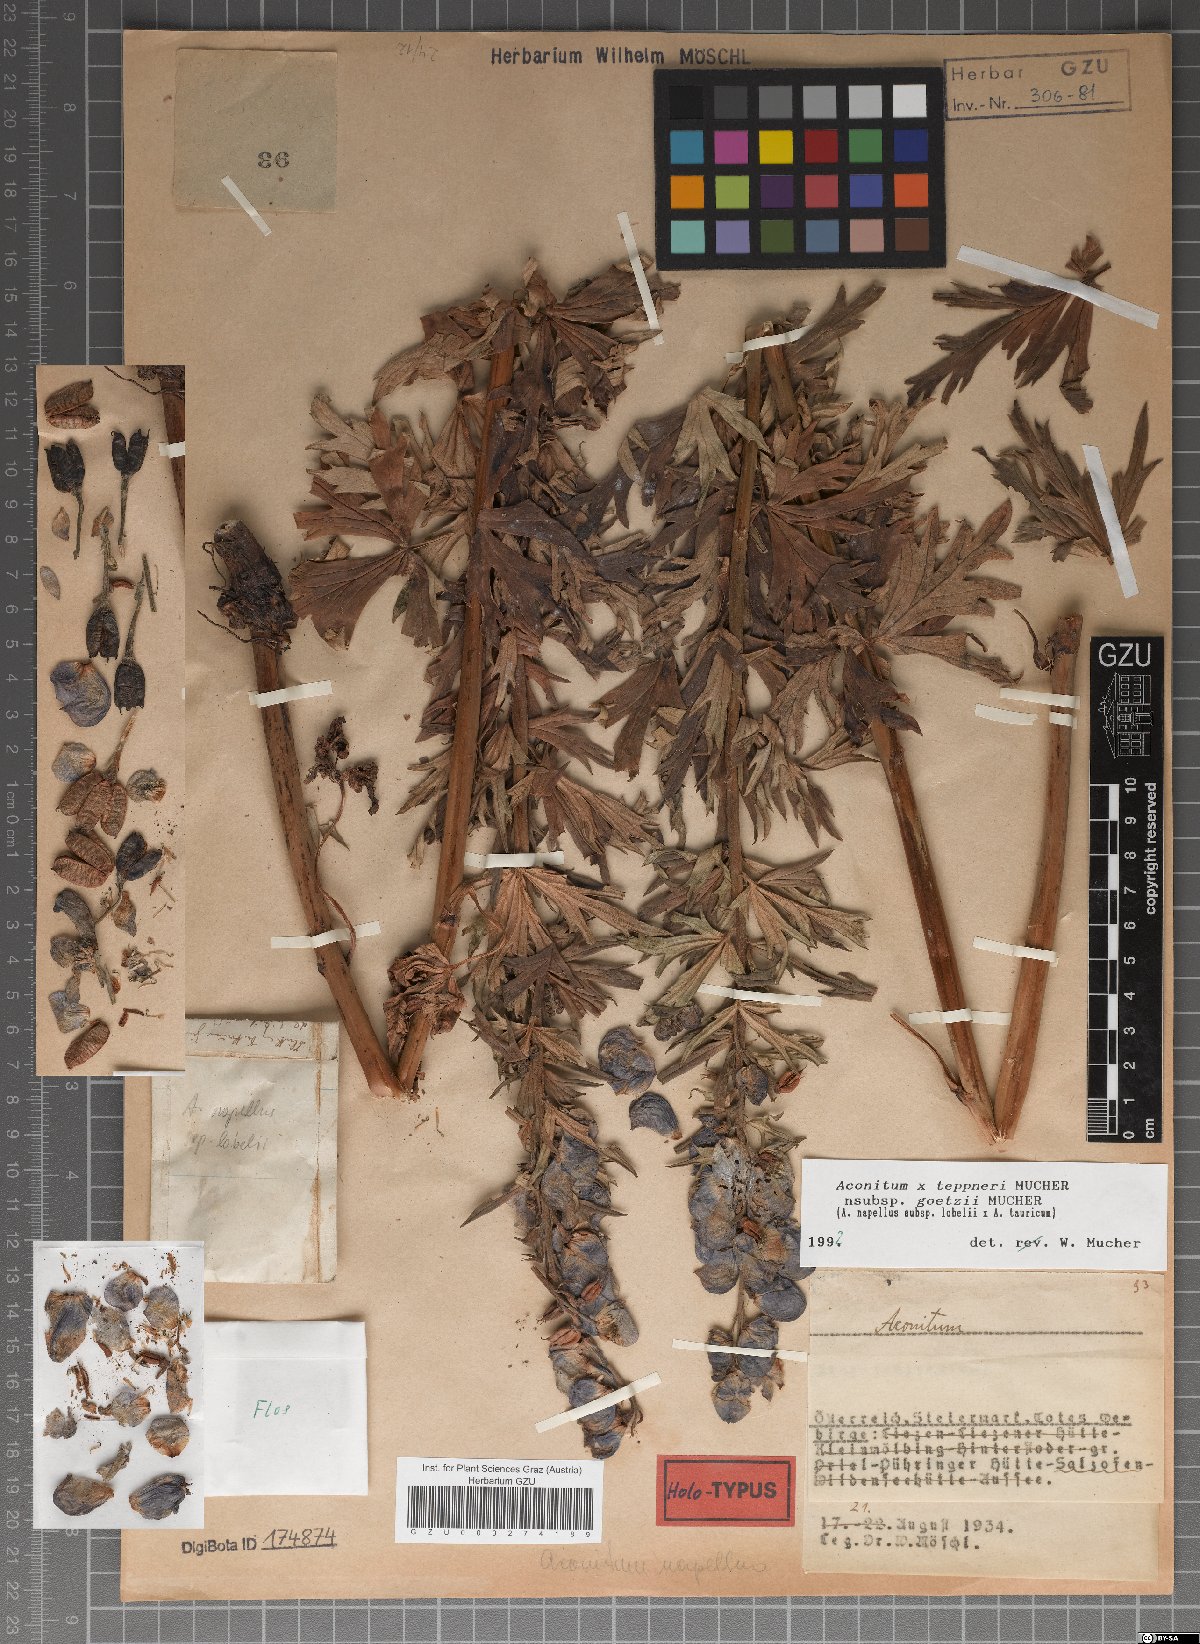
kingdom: Plantae
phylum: Tracheophyta
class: Magnoliopsida
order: Ranunculales
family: Ranunculaceae
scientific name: Ranunculaceae
